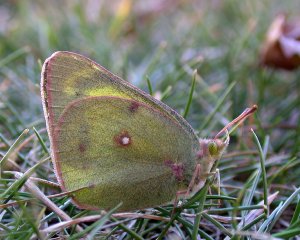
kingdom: Animalia
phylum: Arthropoda
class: Insecta
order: Lepidoptera
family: Pieridae
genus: Colias
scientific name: Colias philodice
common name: Clouded Sulphur
